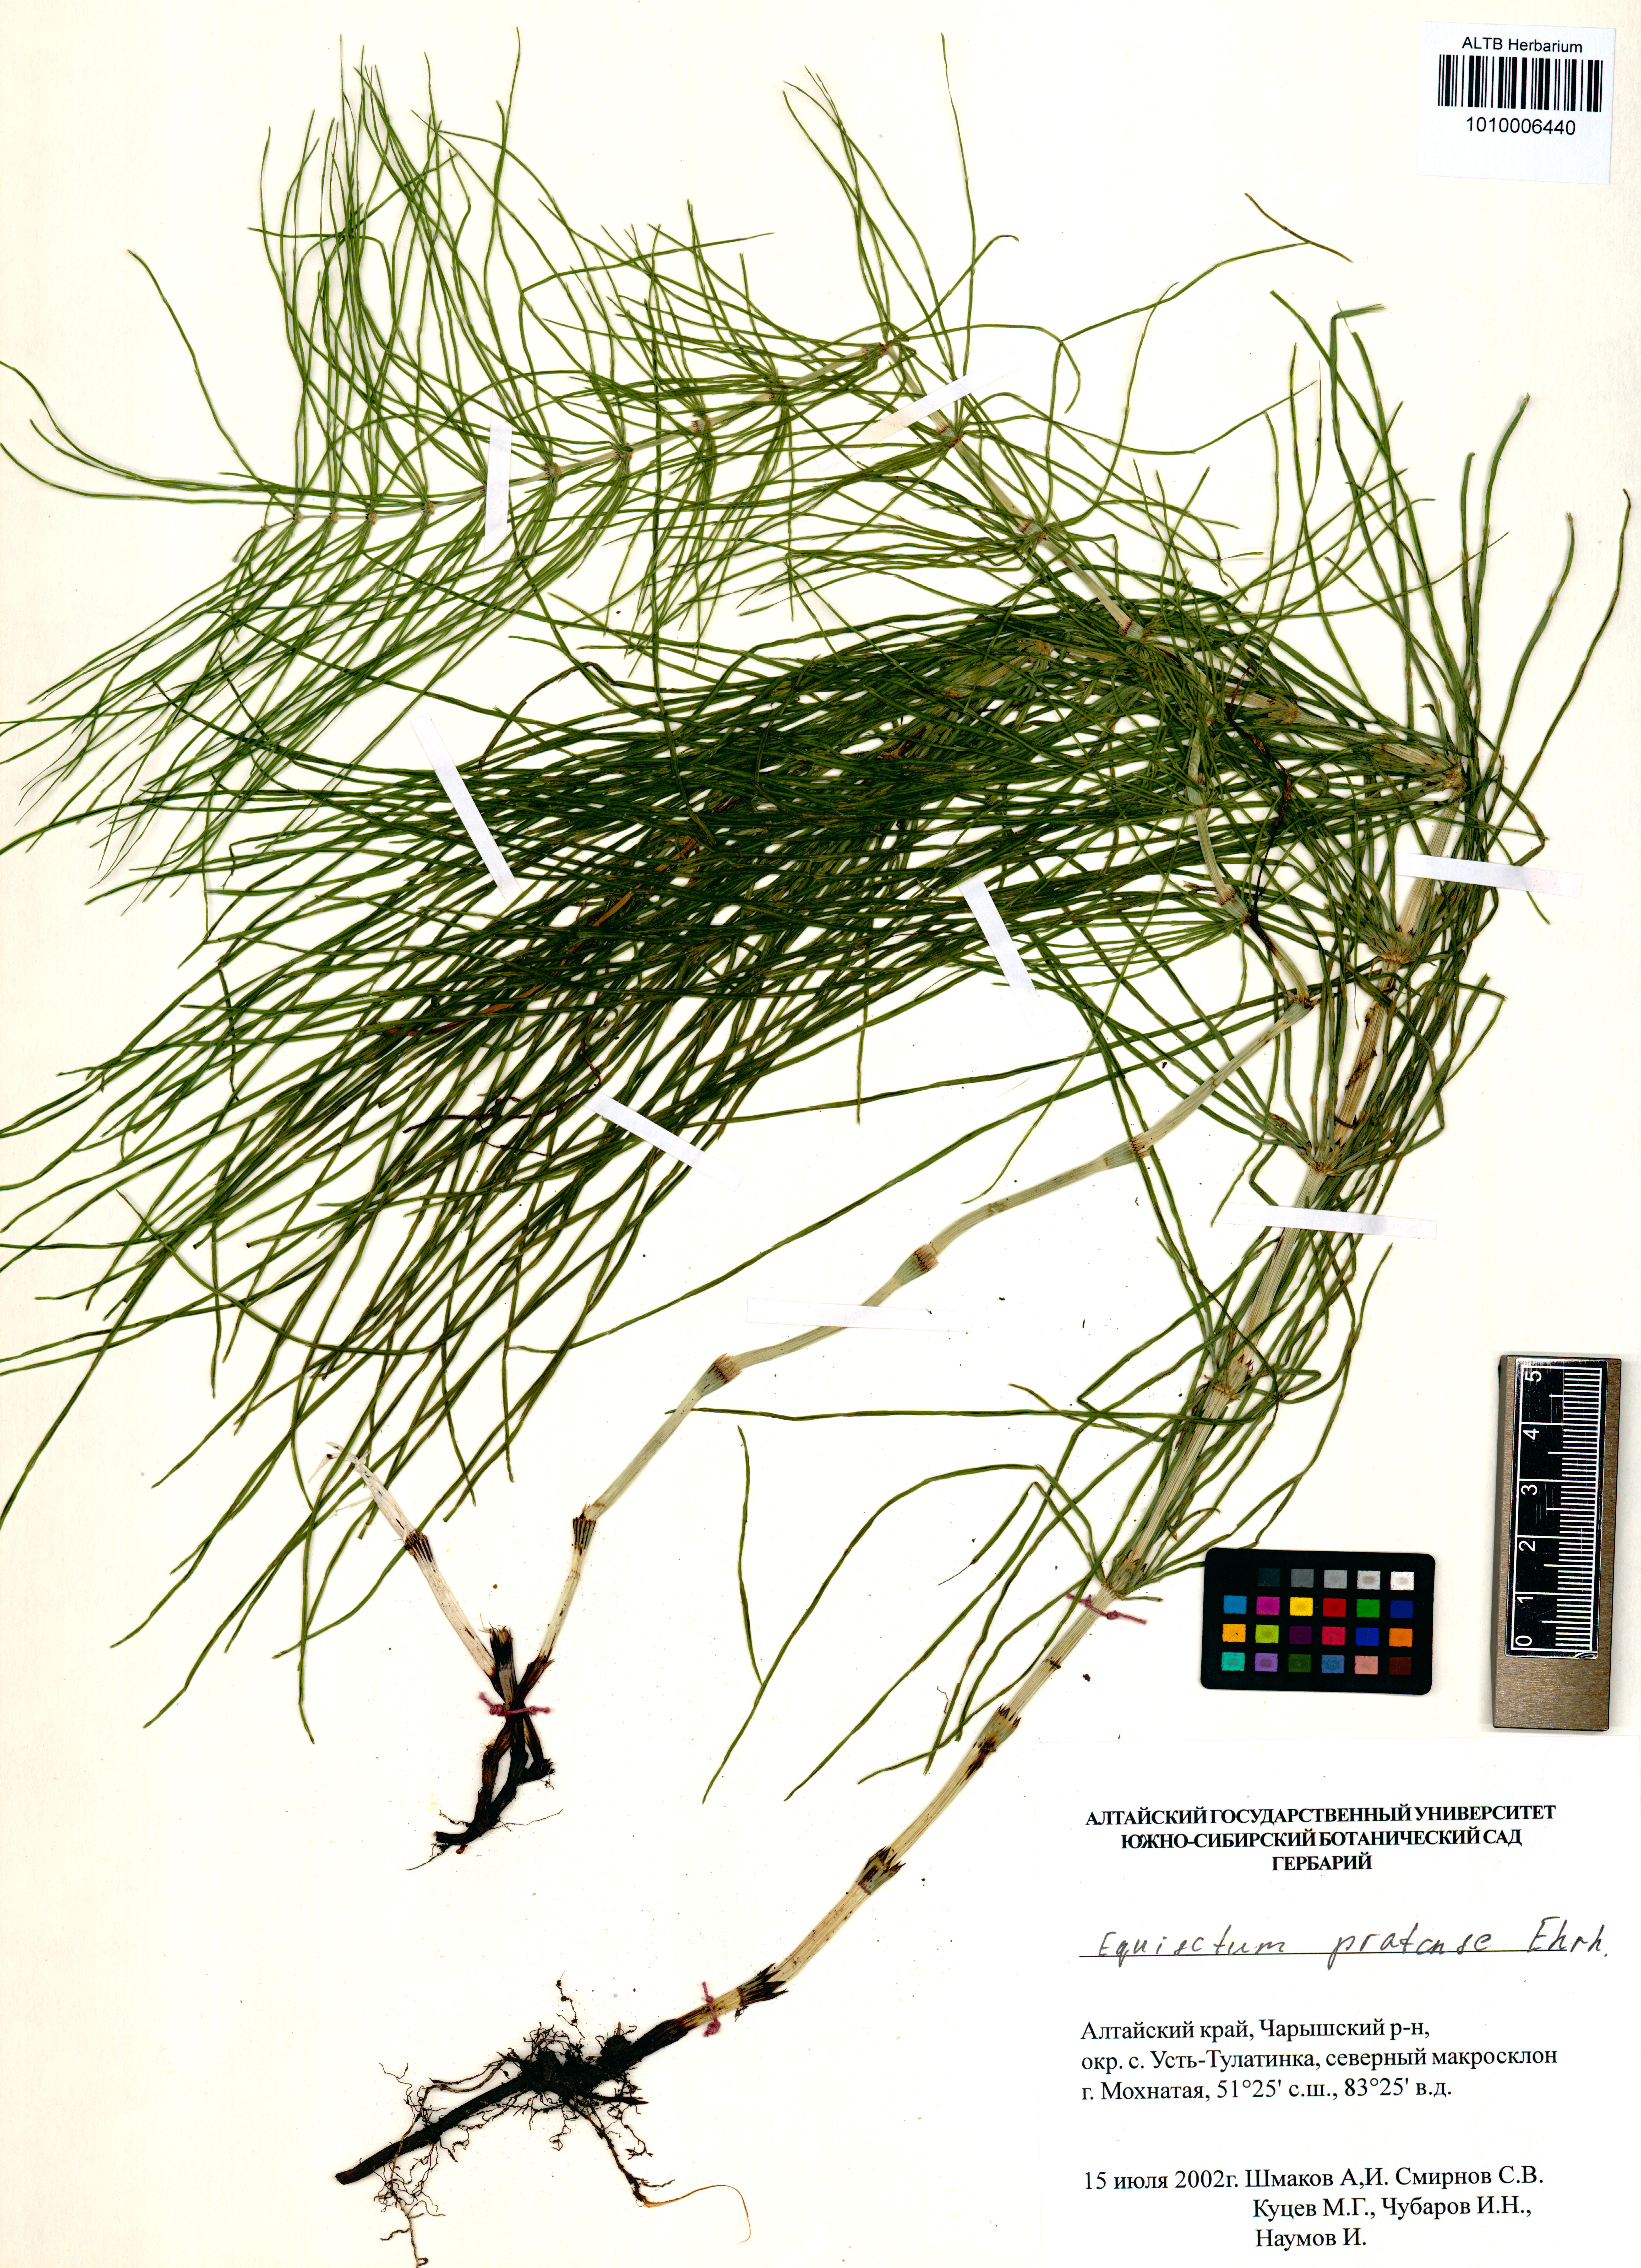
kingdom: Plantae
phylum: Tracheophyta
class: Polypodiopsida
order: Equisetales
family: Equisetaceae
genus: Equisetum
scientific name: Equisetum pratense
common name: Meadow horsetail
